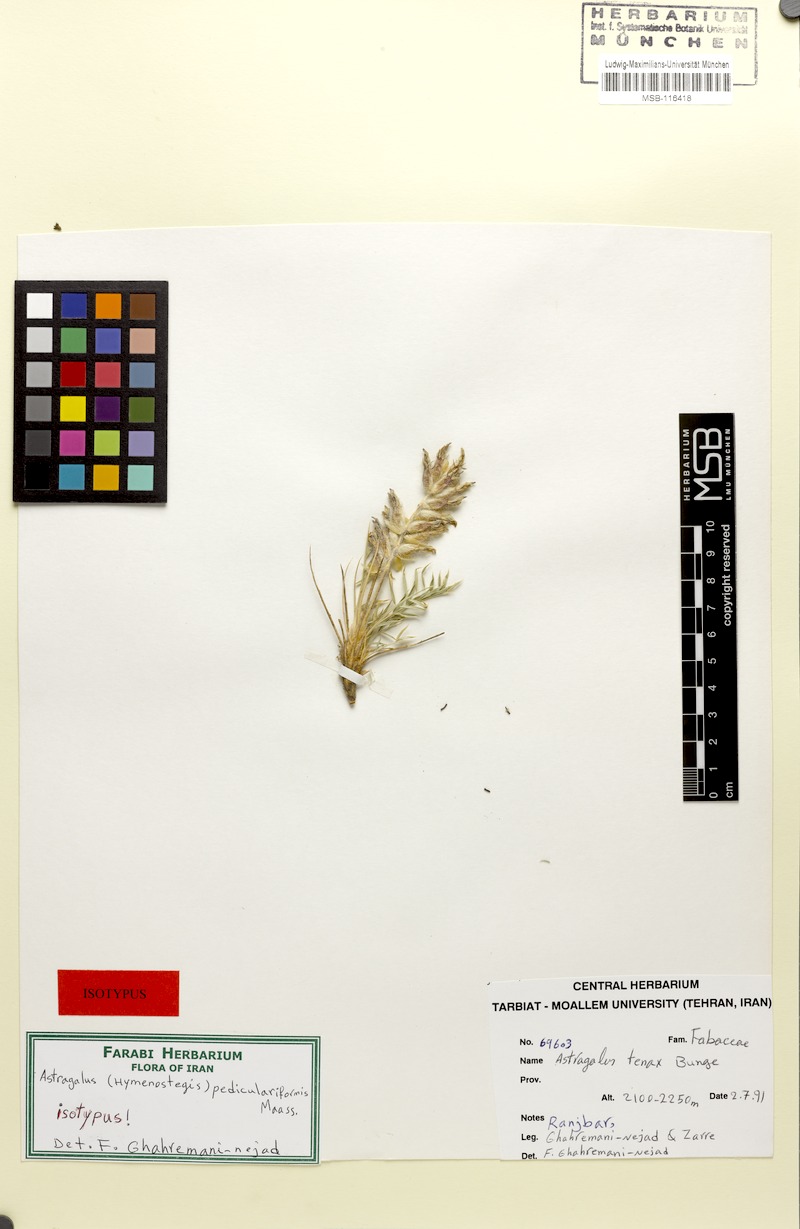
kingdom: Plantae
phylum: Tracheophyta
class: Magnoliopsida
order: Fabales
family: Fabaceae
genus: Astragalus
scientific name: Astragalus pediculariformis
